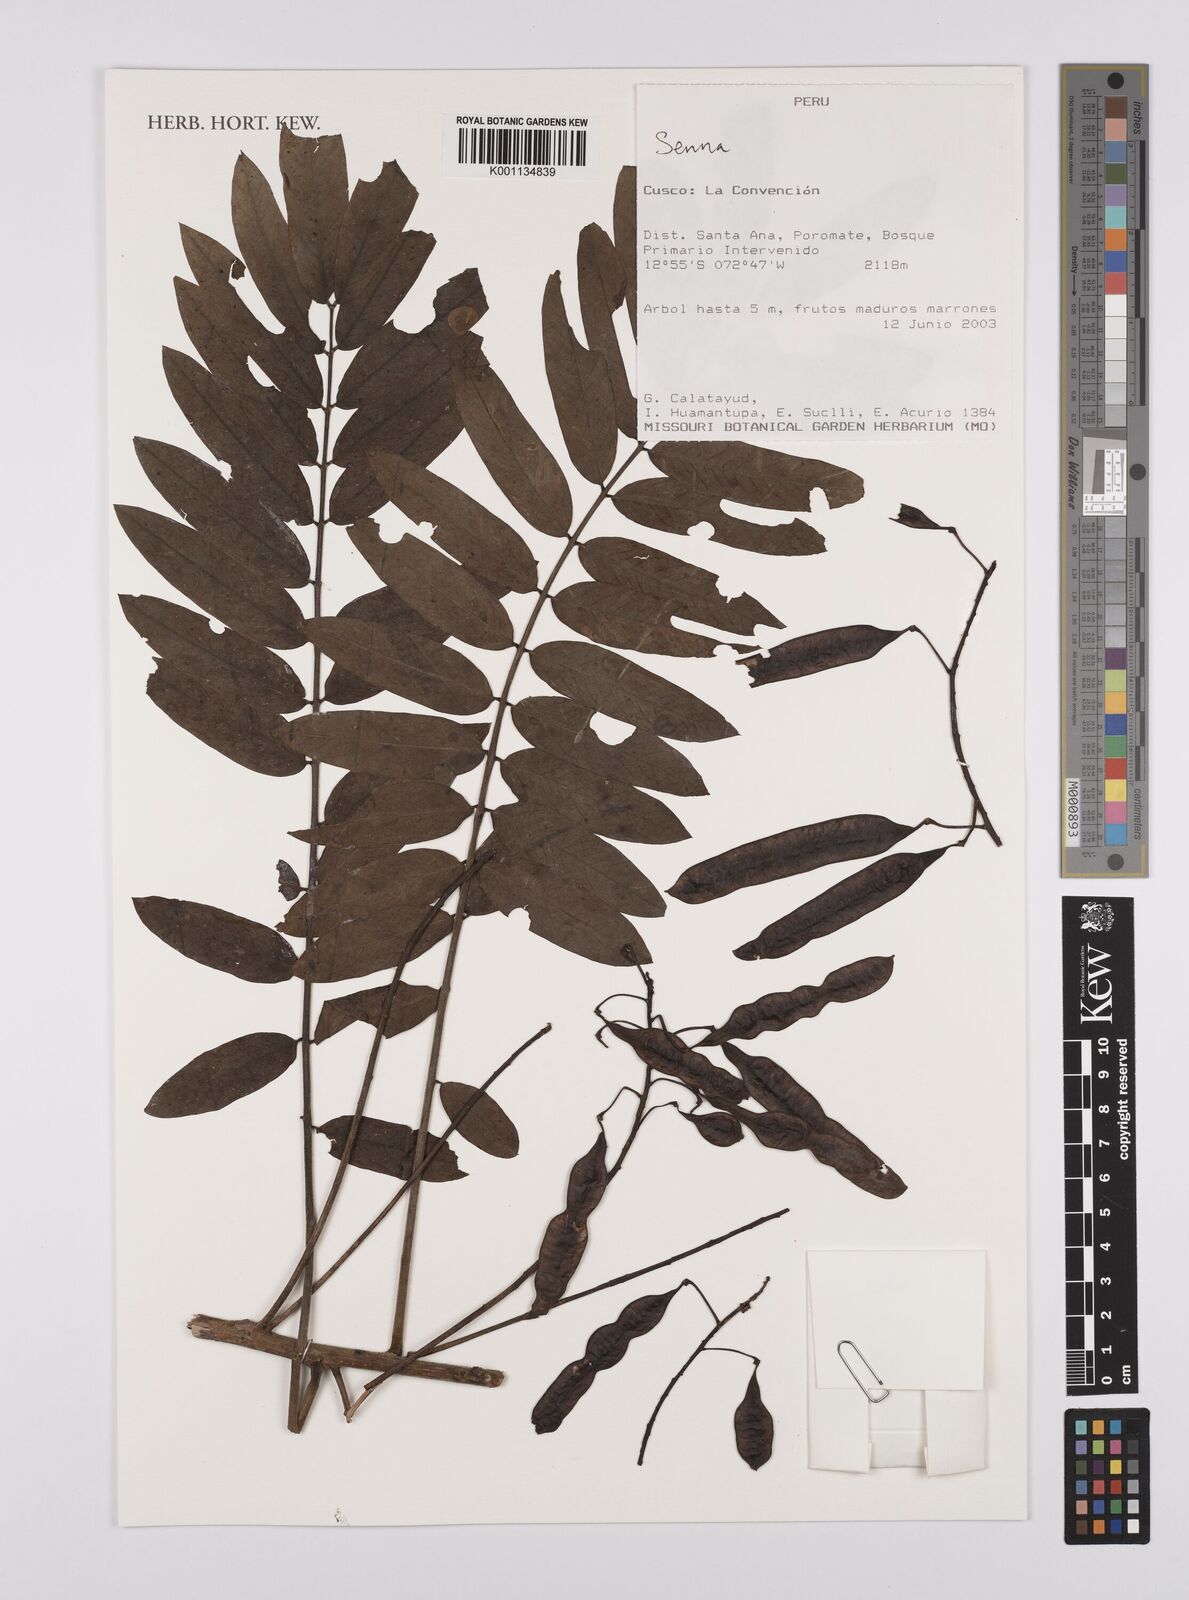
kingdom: Plantae
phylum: Tracheophyta
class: Magnoliopsida
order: Fabales
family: Fabaceae
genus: Senna
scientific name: Senna
